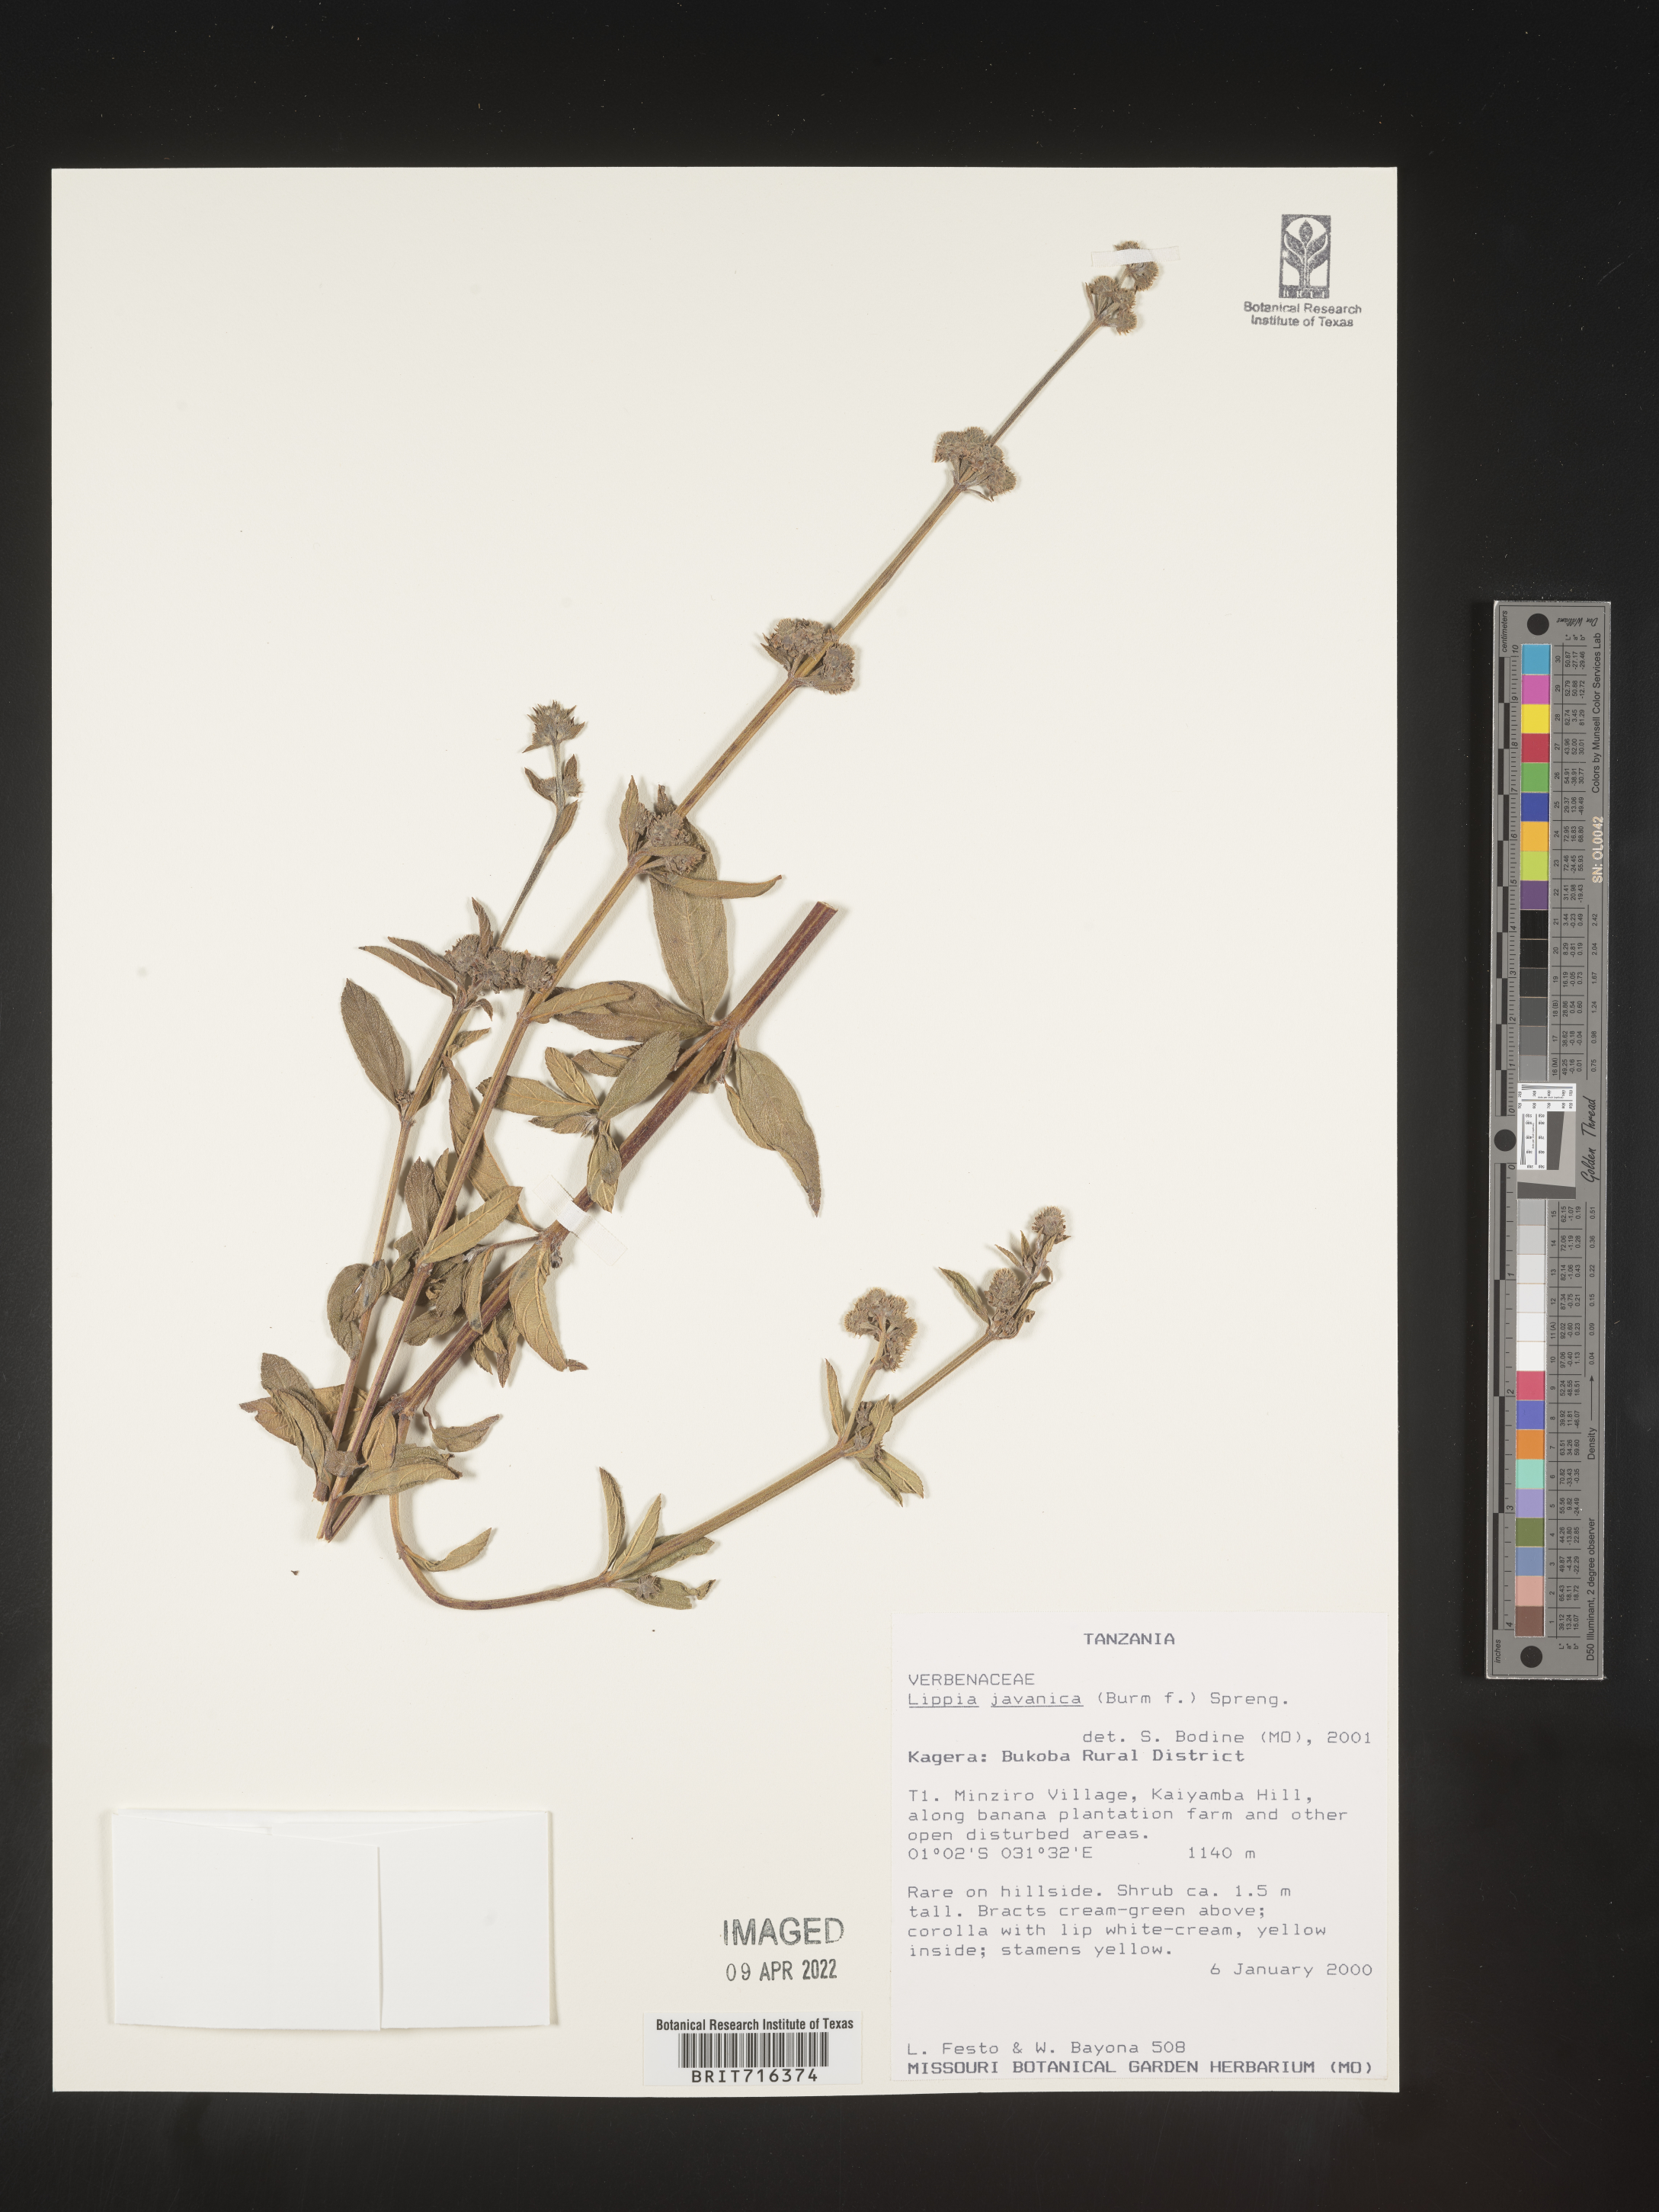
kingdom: Plantae
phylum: Tracheophyta
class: Magnoliopsida
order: Lamiales
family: Verbenaceae
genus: Lippia
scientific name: Lippia
